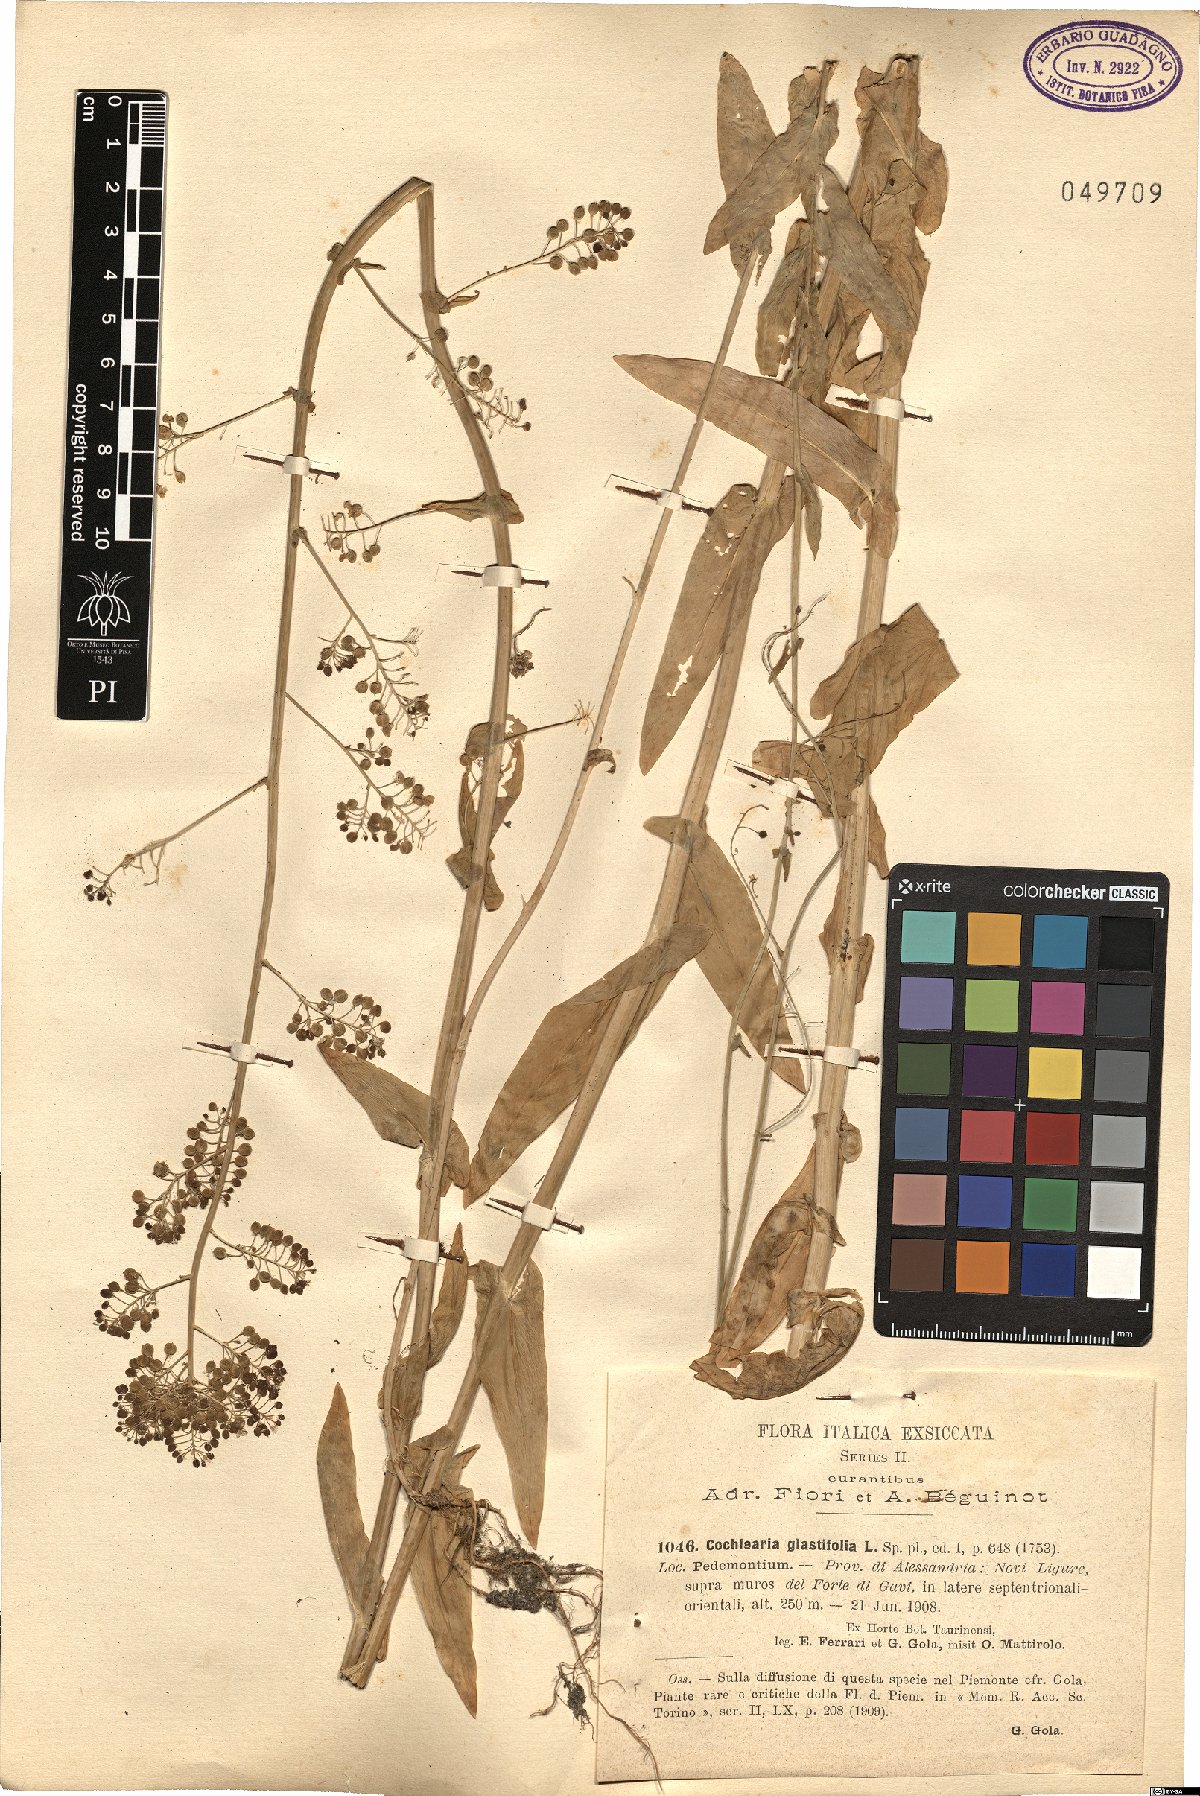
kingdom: Plantae
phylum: Tracheophyta
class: Magnoliopsida
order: Brassicales
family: Brassicaceae
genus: Ionopsidium
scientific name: Ionopsidium glastifolium
